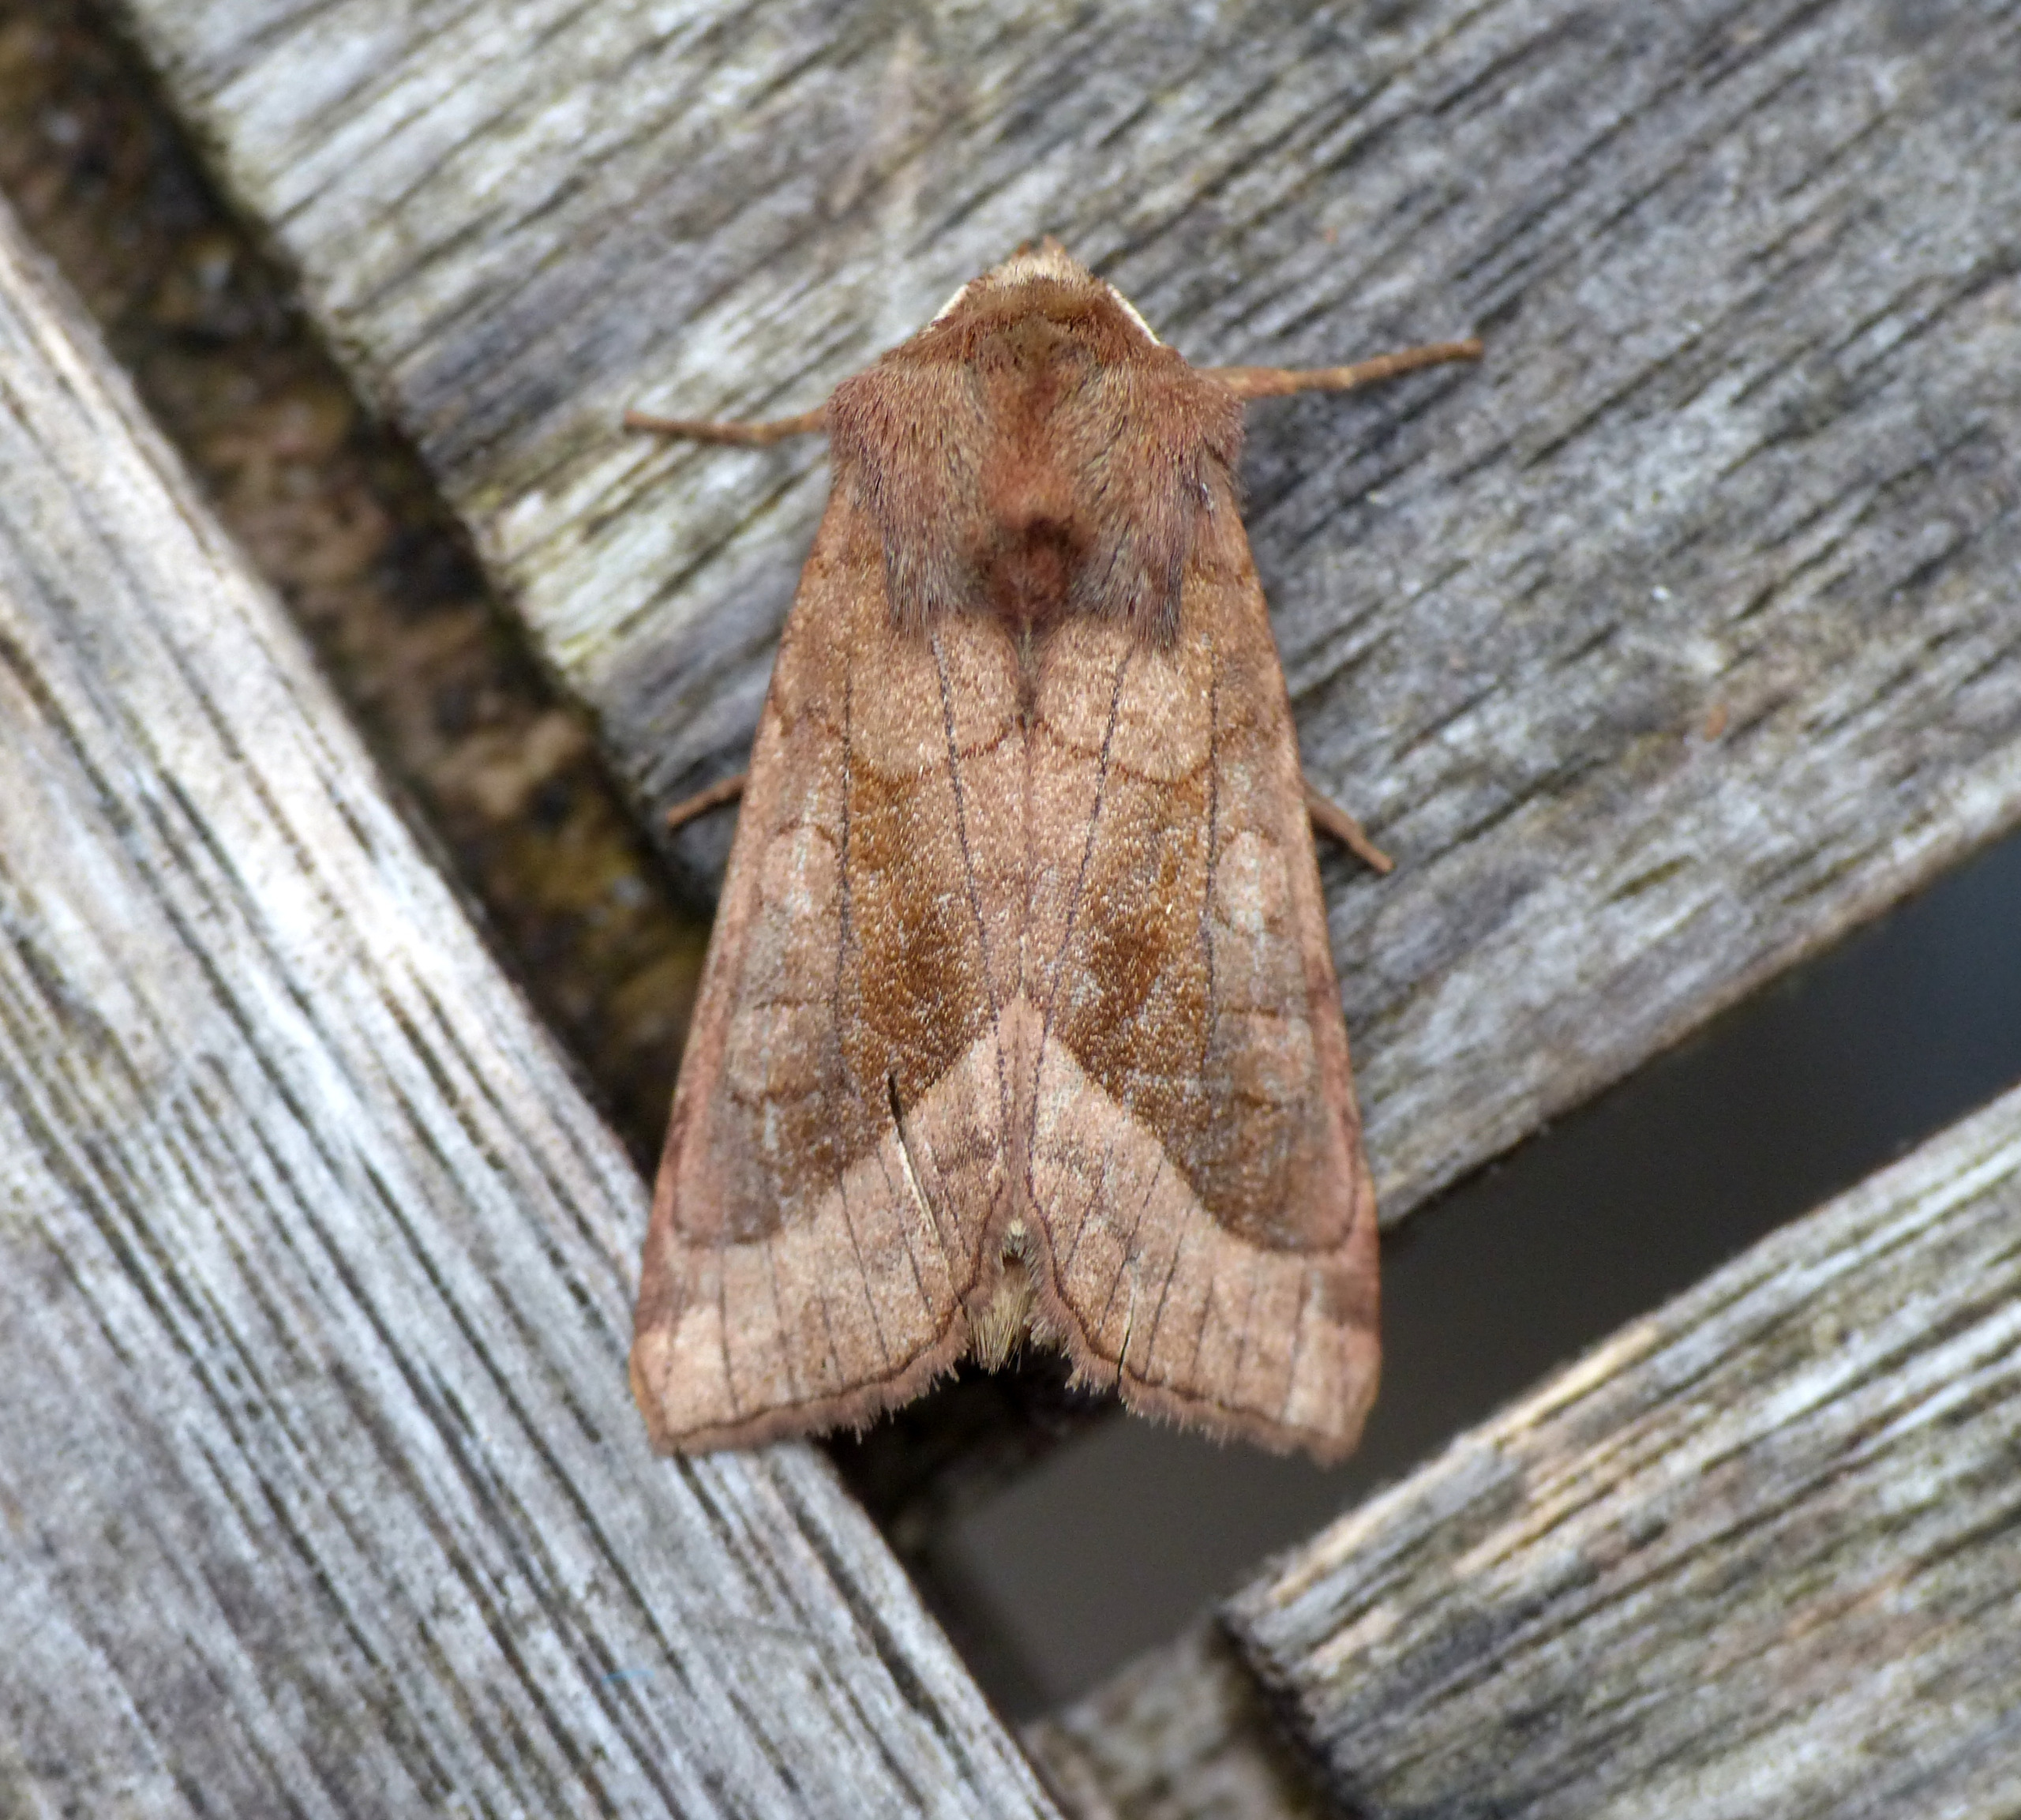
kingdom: Animalia
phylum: Arthropoda
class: Insecta
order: Lepidoptera
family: Noctuidae
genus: Hydraecia
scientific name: Hydraecia micacea
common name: Kartoffelborer
